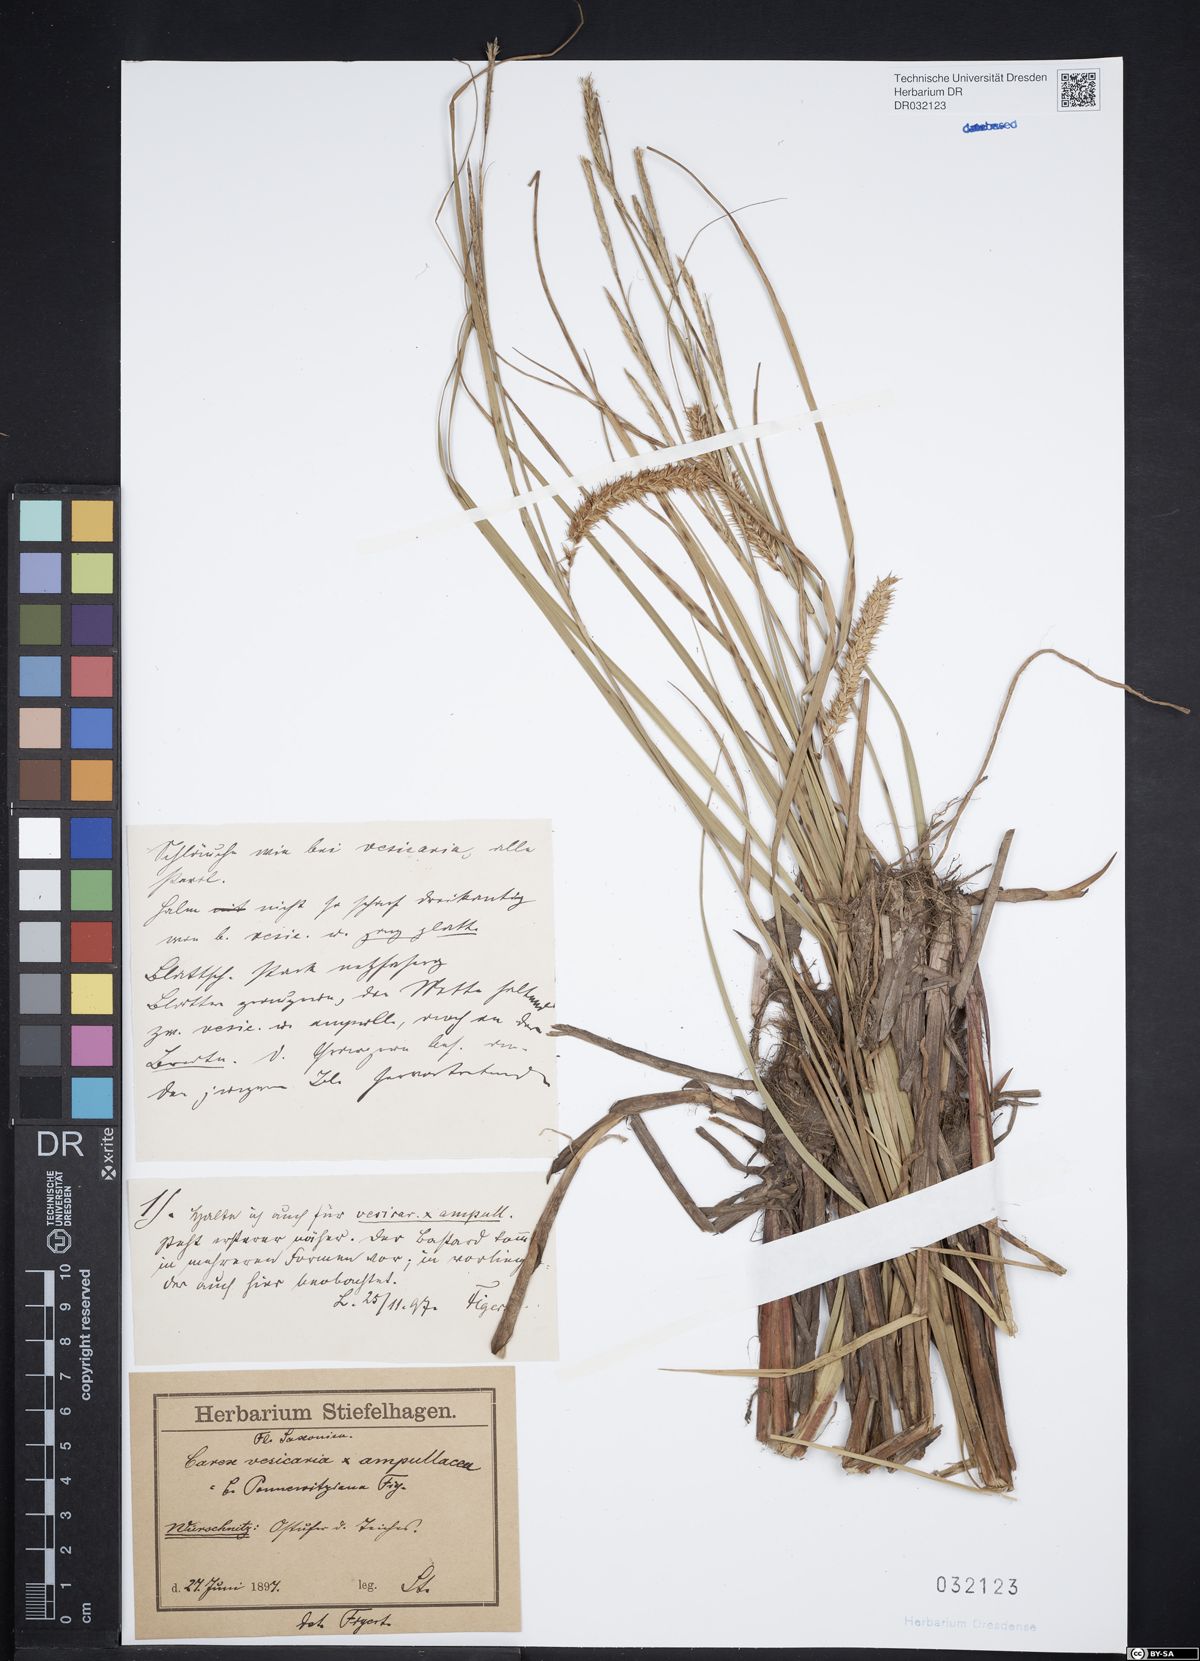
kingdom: Plantae
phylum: Tracheophyta
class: Liliopsida
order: Poales
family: Cyperaceae
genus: Carex
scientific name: Carex vesicaria
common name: Bladder-sedge
